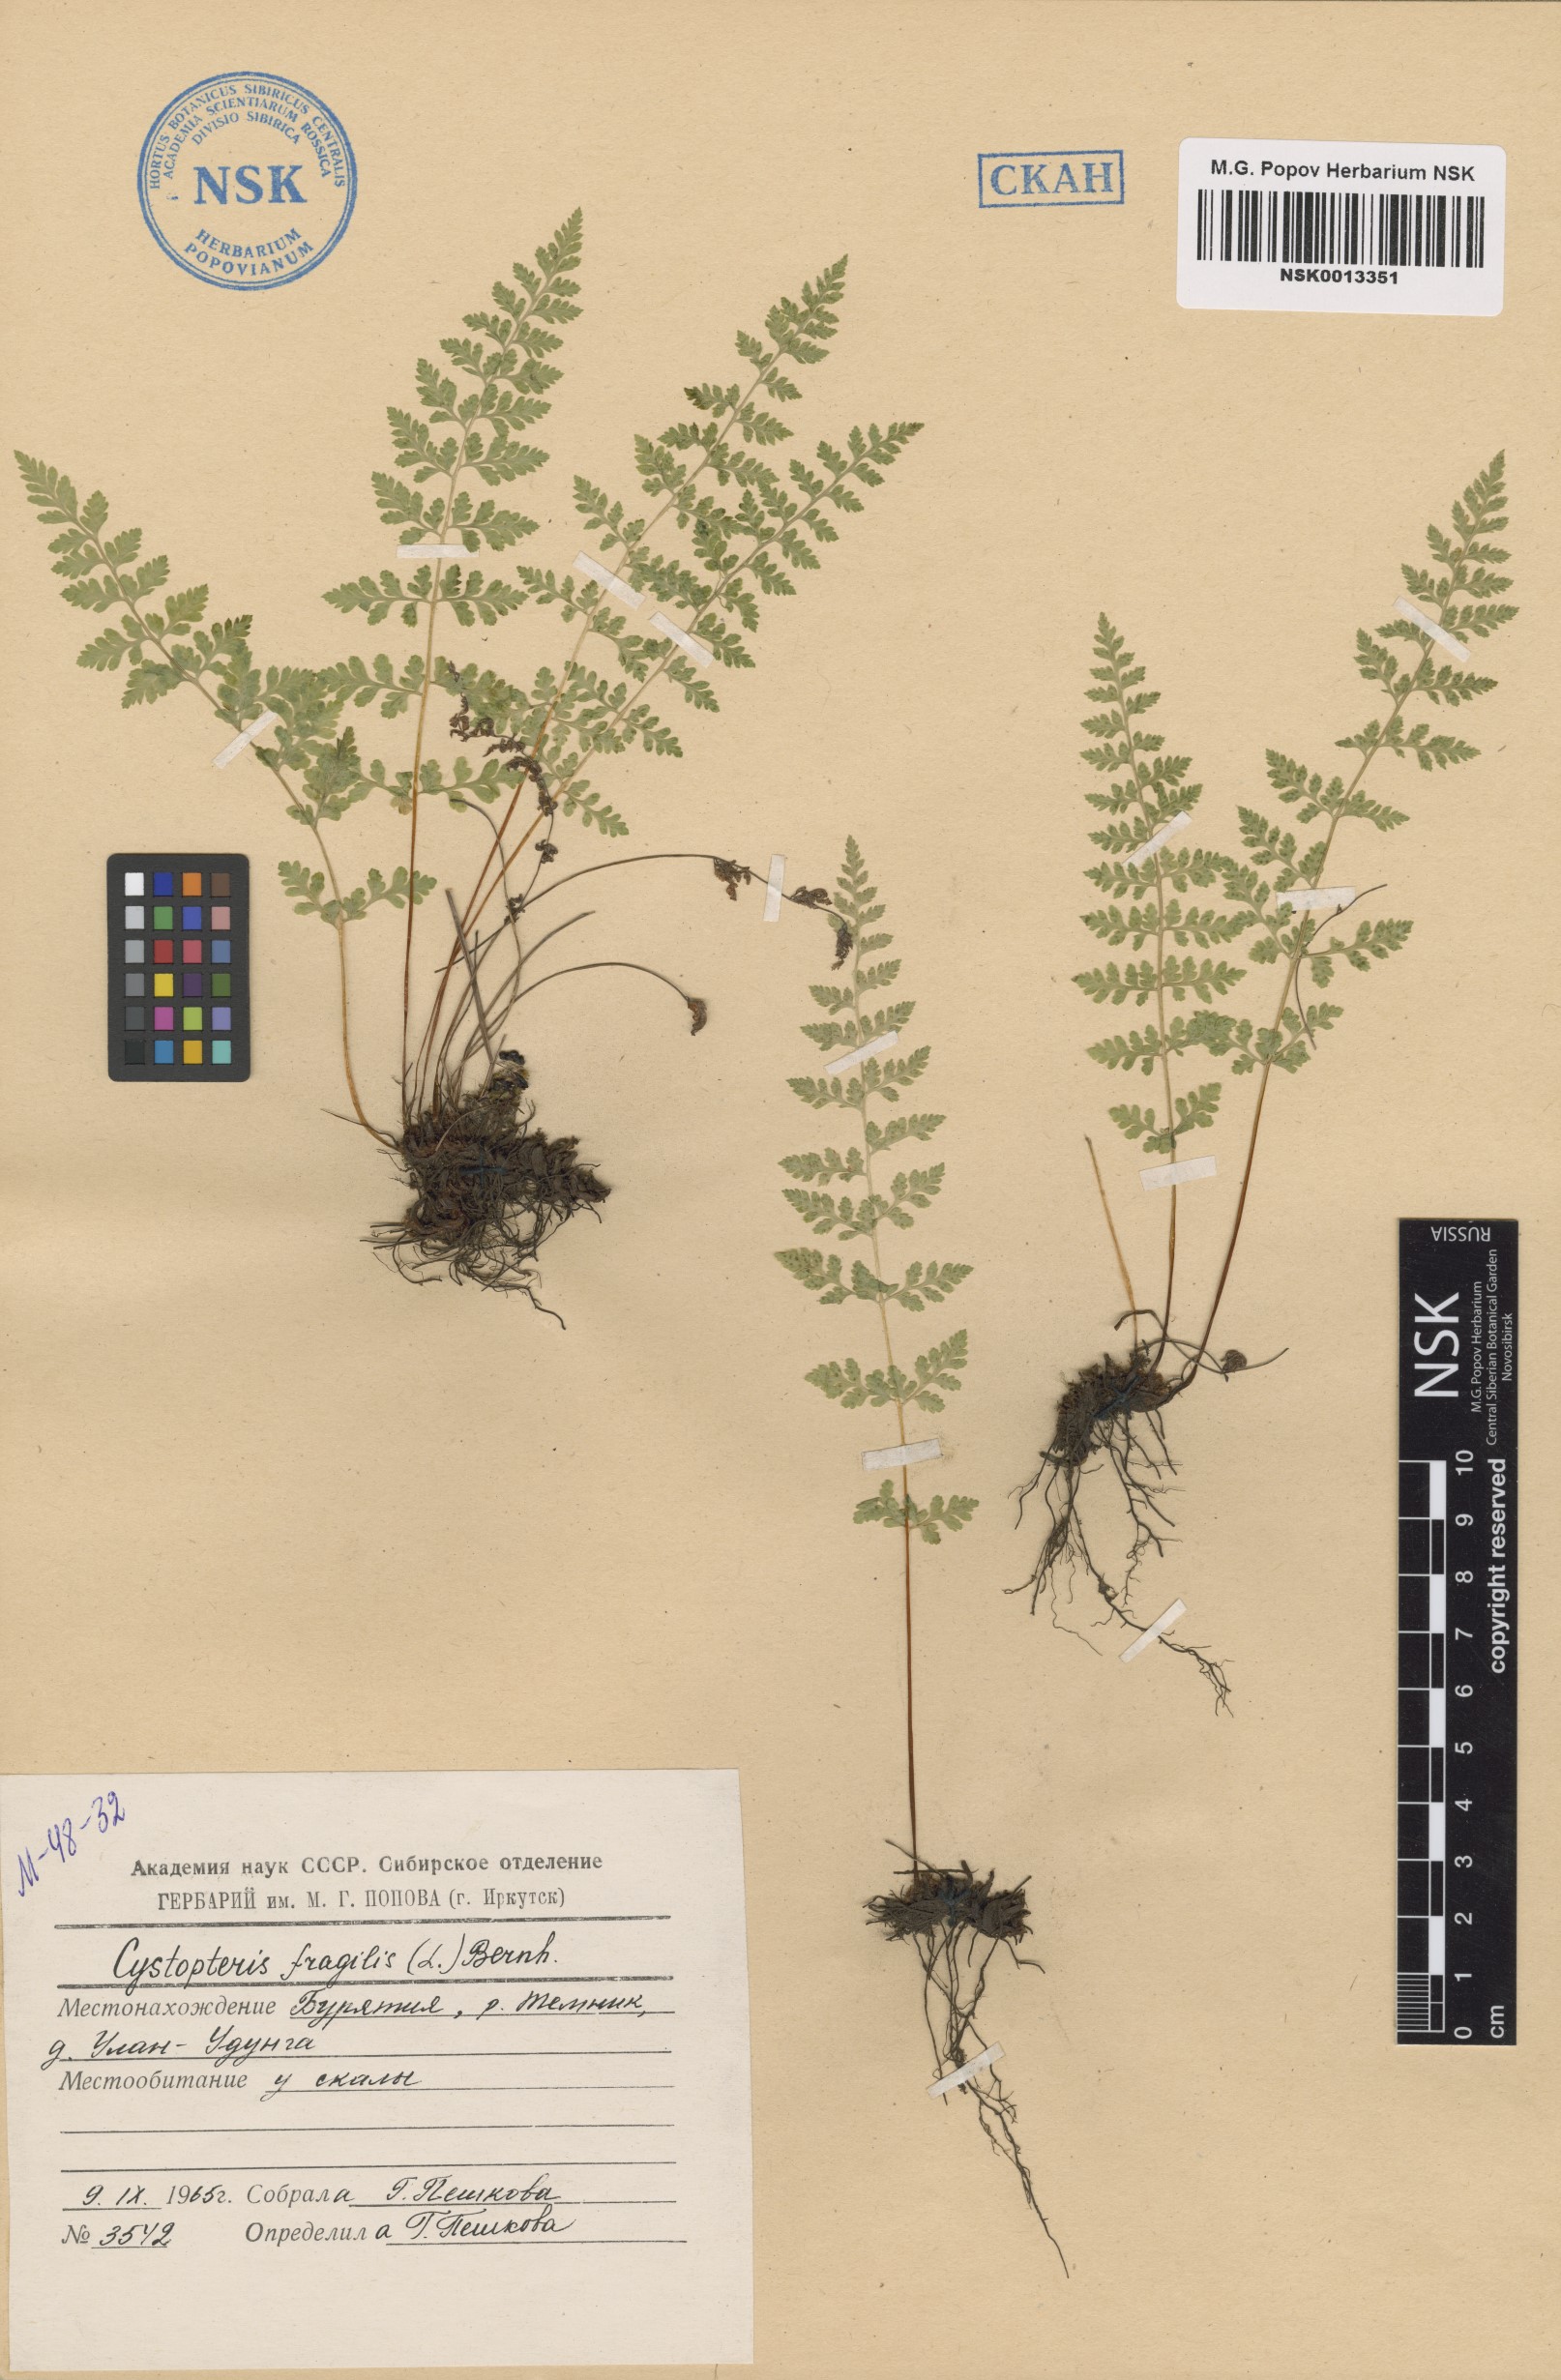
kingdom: Plantae
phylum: Tracheophyta
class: Polypodiopsida
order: Polypodiales
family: Cystopteridaceae
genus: Cystopteris
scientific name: Cystopteris fragilis
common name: Brittle bladder fern
